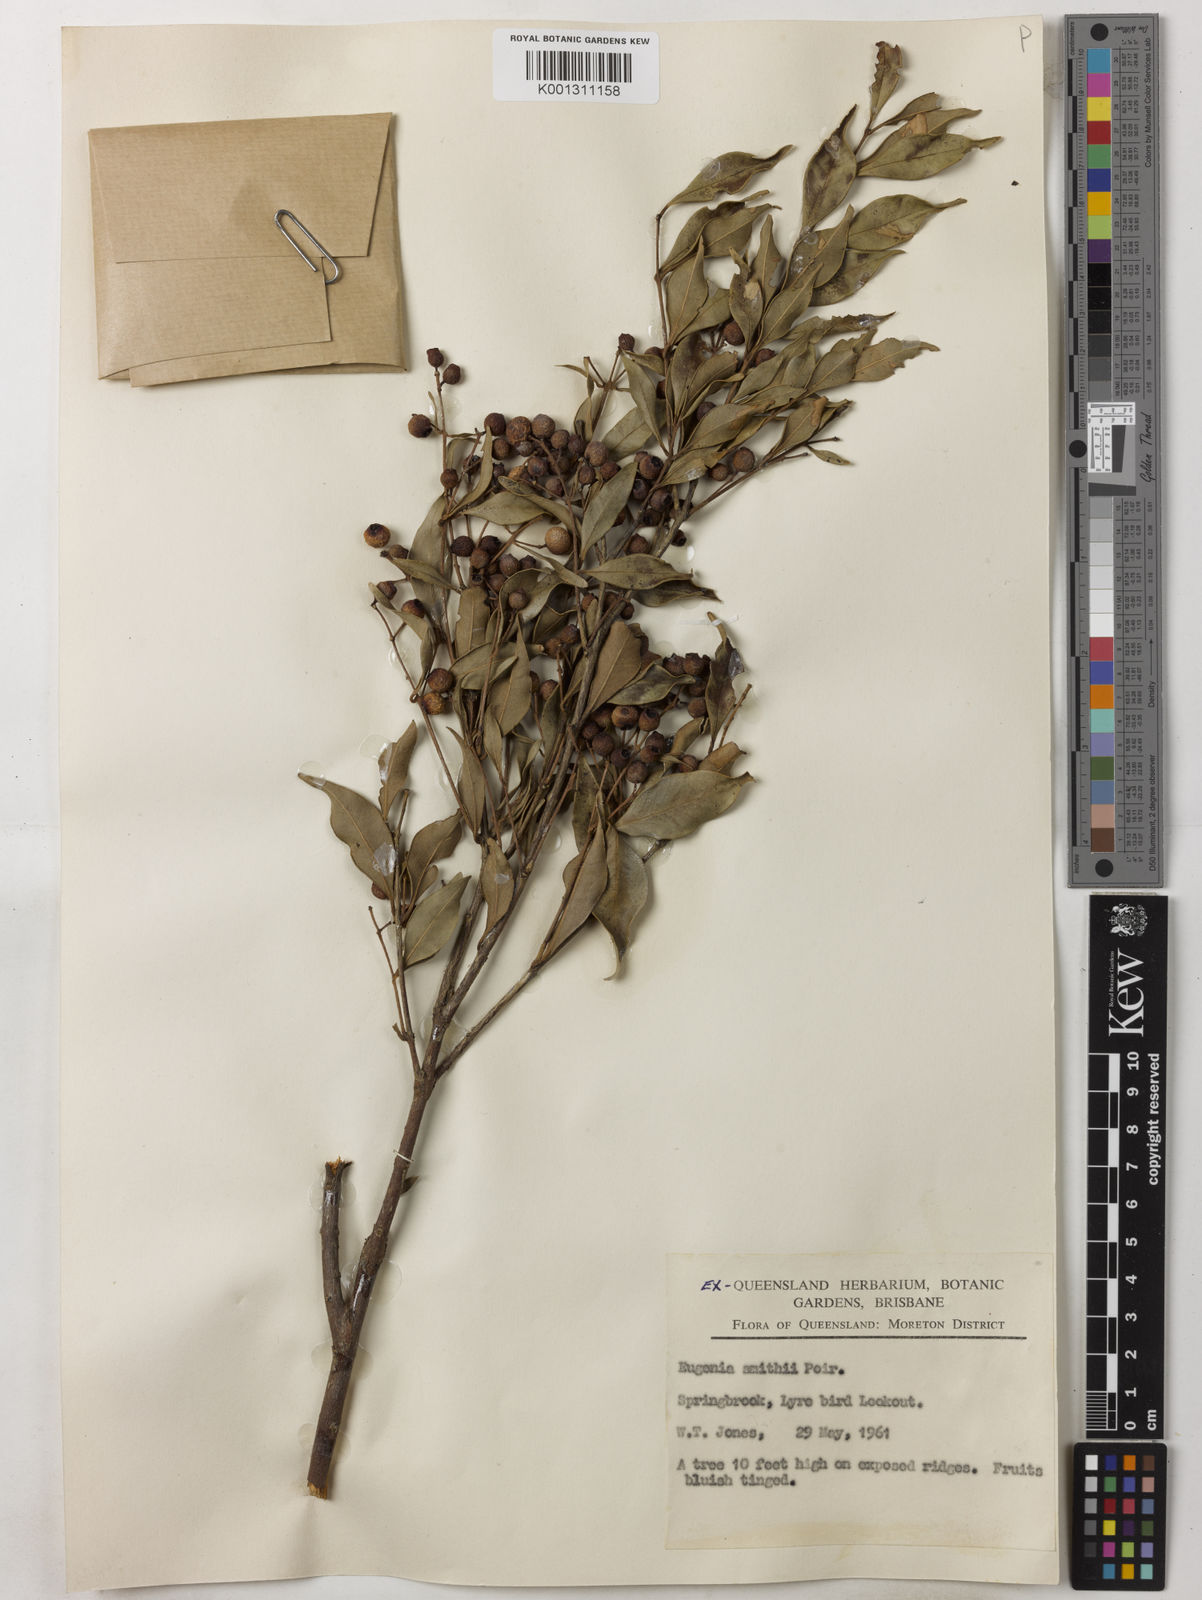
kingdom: Plantae
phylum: Tracheophyta
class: Magnoliopsida
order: Myrtales
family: Myrtaceae
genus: Syzygium
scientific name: Syzygium smithii
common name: Lilly-pilly
